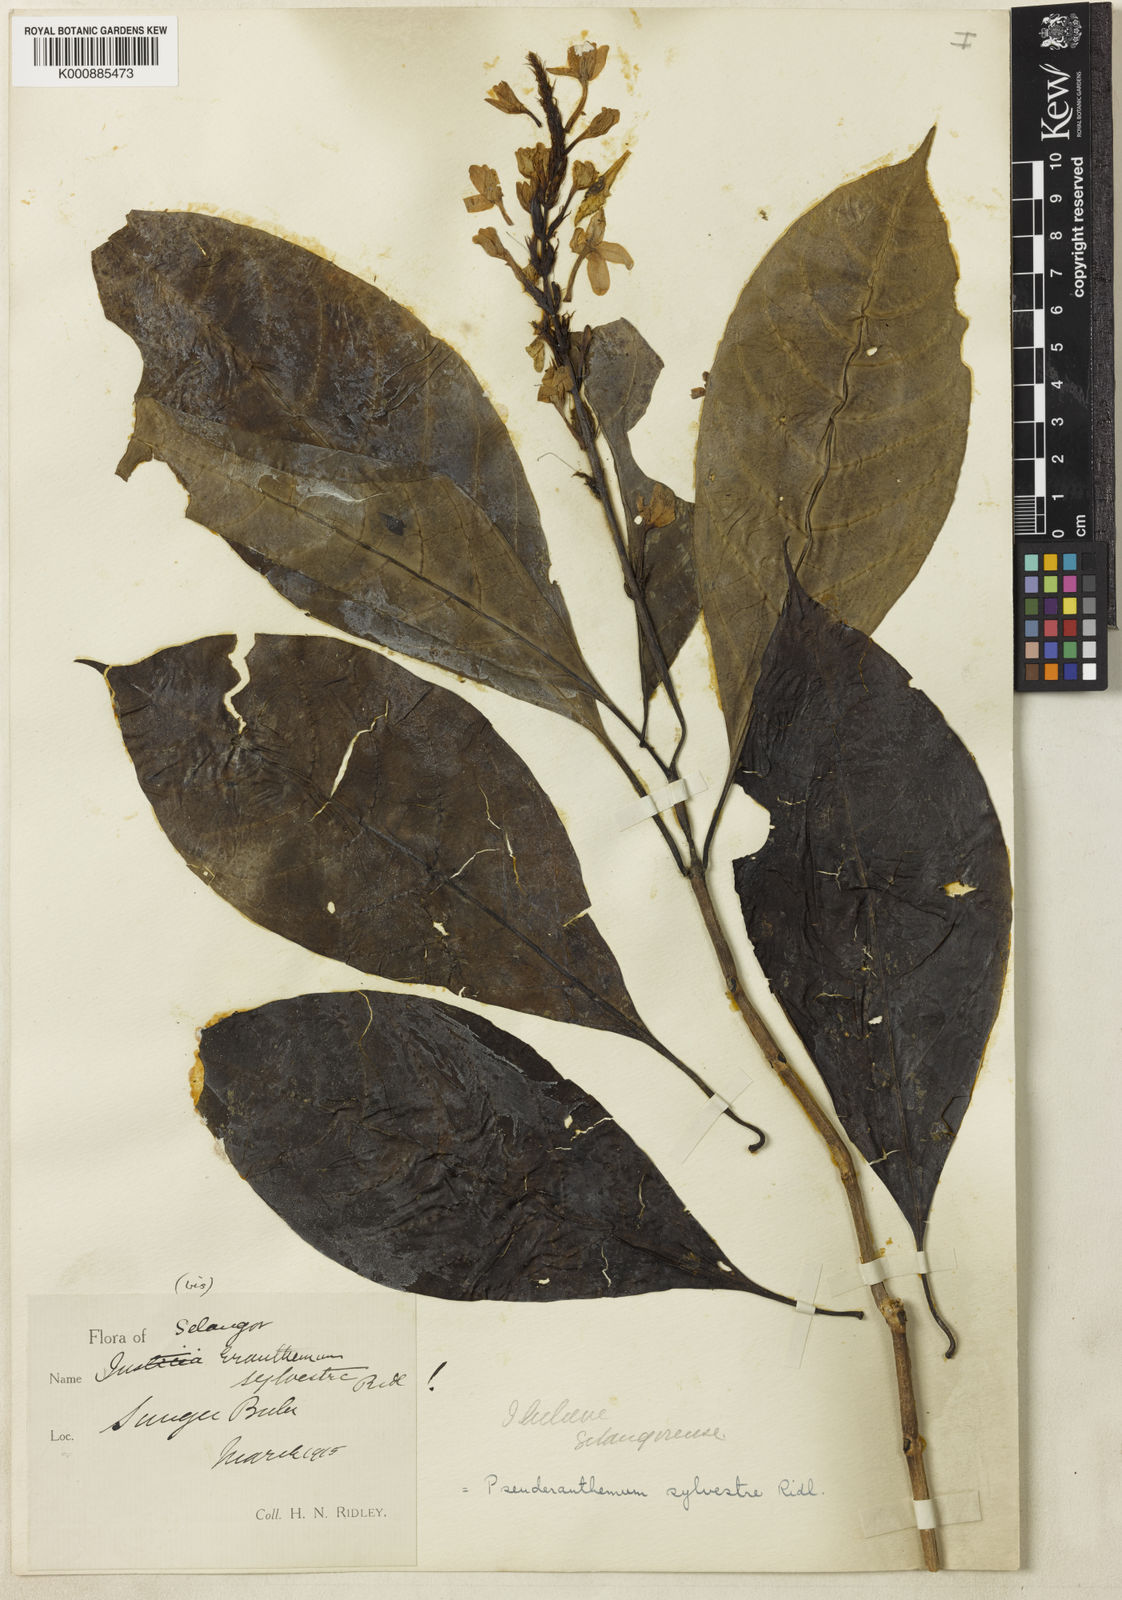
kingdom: Plantae
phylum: Tracheophyta
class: Magnoliopsida
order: Lamiales
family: Acanthaceae
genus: Pseuderanthemum
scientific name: Pseuderanthemum sylvestre
